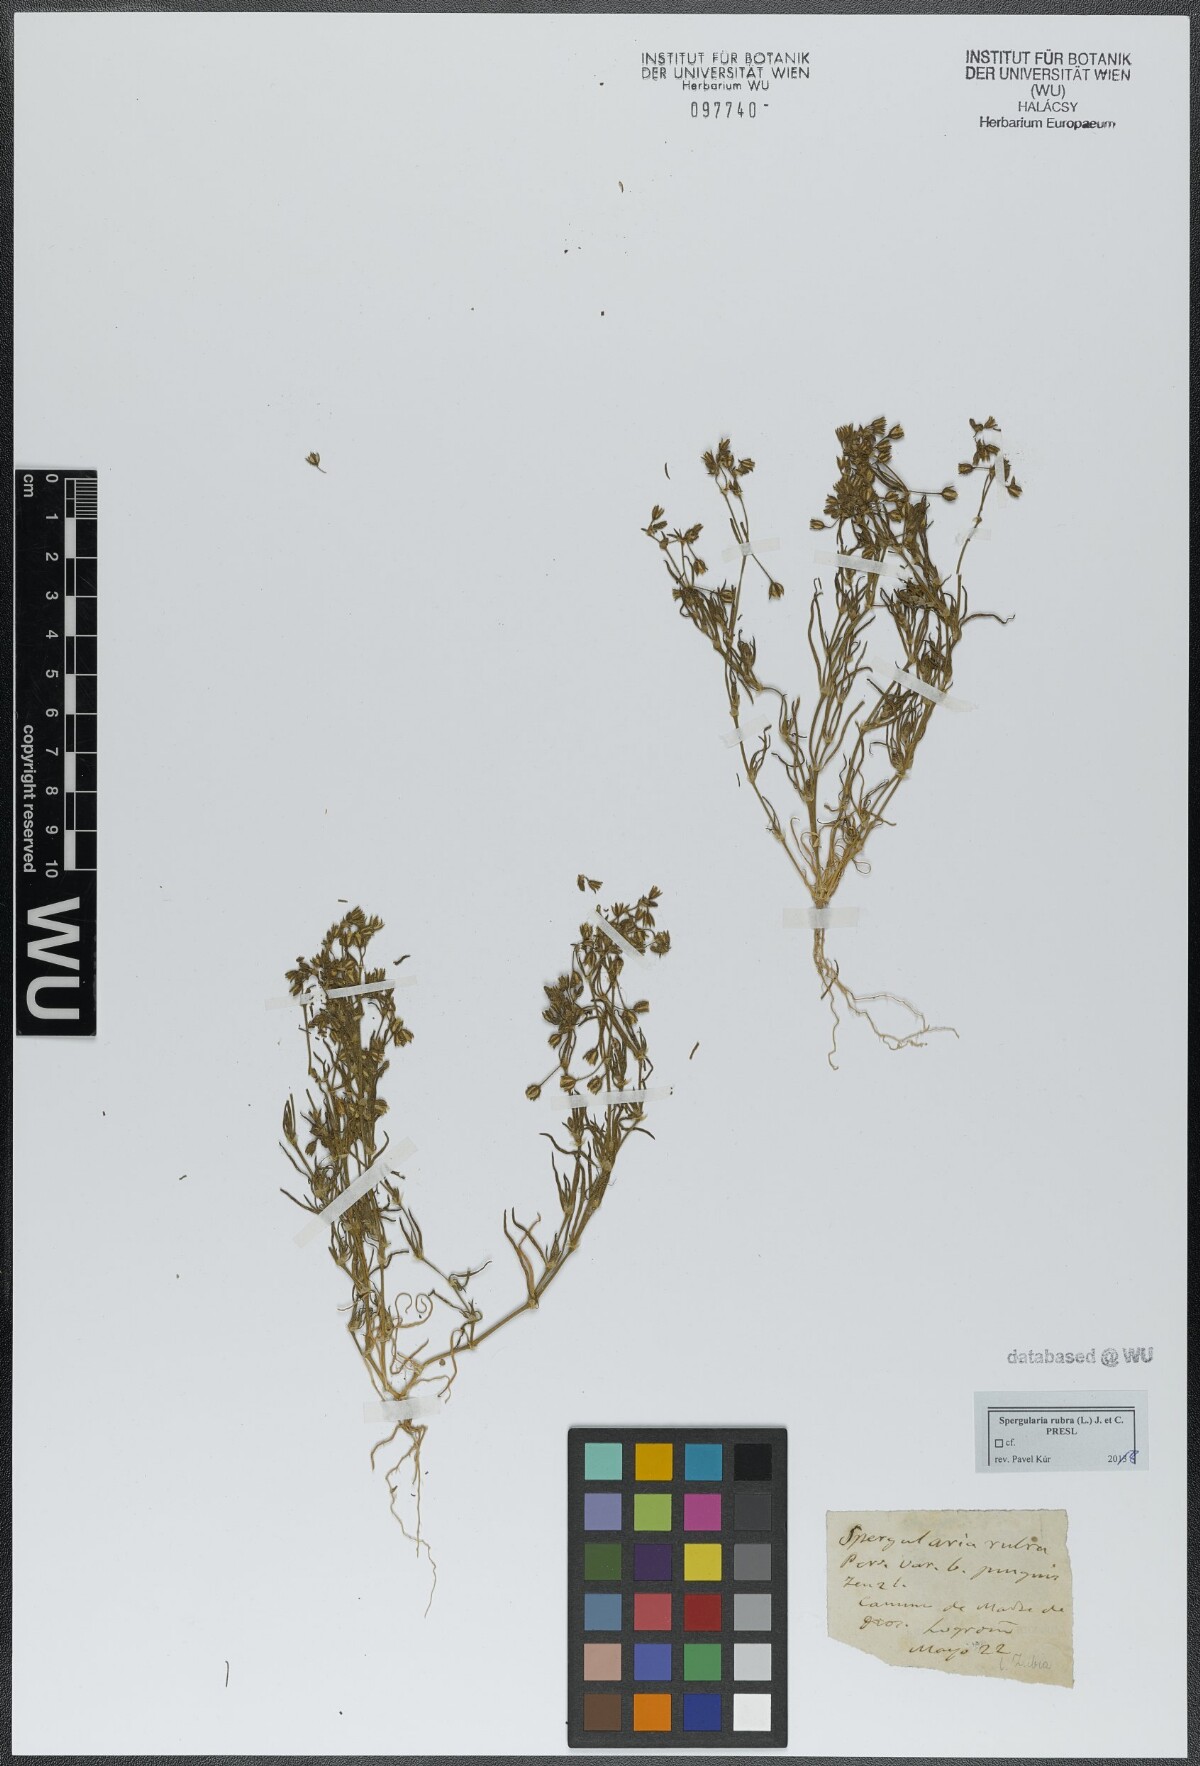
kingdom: Plantae
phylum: Tracheophyta
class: Magnoliopsida
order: Caryophyllales
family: Caryophyllaceae
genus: Spergularia
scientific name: Spergularia rubra
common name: Red sand-spurrey
